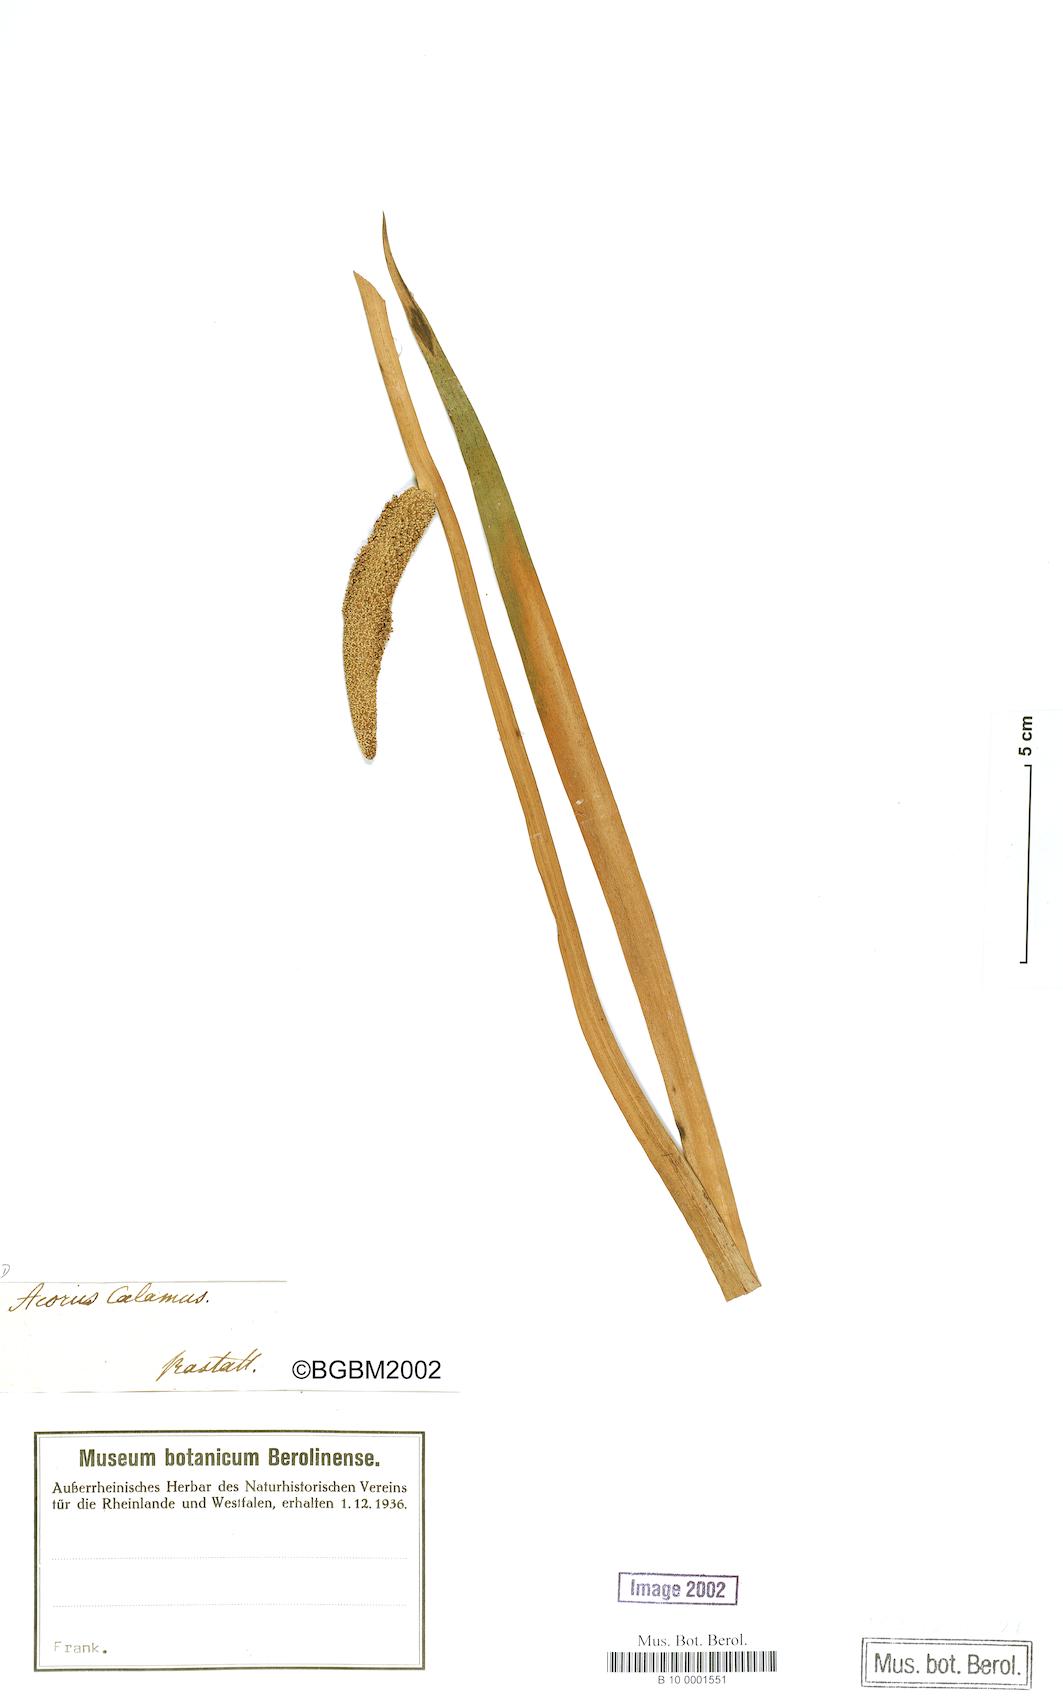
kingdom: Plantae
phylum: Tracheophyta
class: Liliopsida
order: Acorales
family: Acoraceae
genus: Acorus
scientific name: Acorus calamus
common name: Sweet-flag
